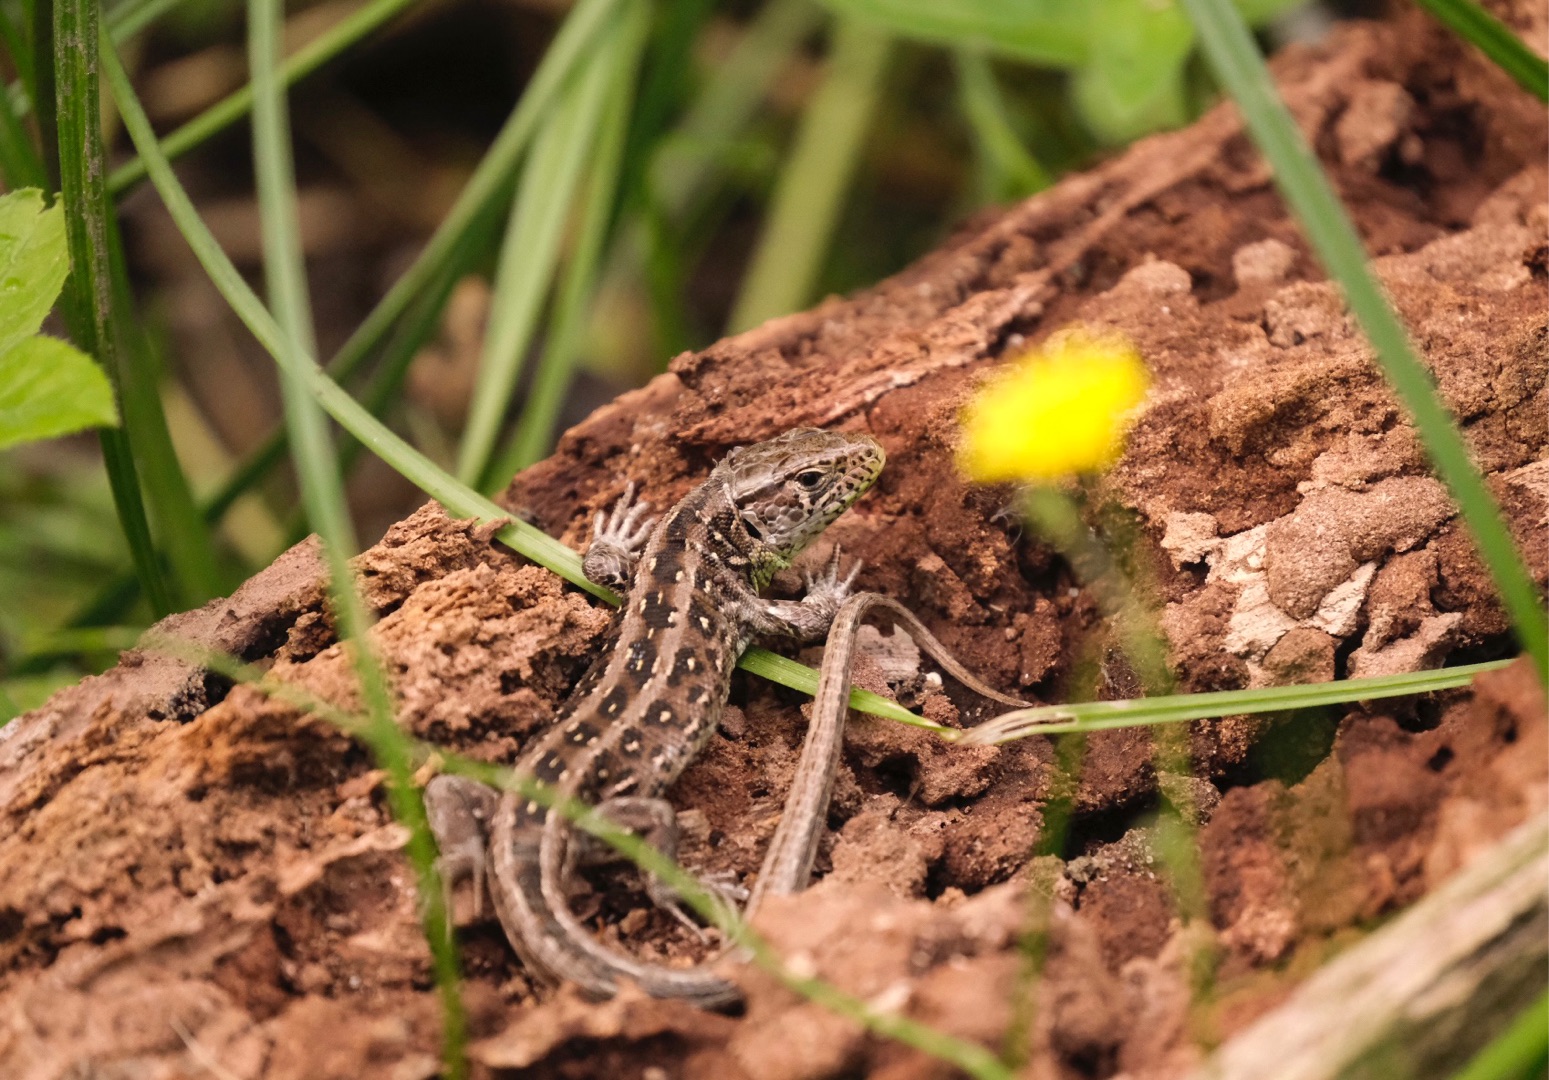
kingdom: Animalia
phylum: Chordata
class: Squamata
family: Lacertidae
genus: Lacerta
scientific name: Lacerta agilis
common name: Markfirben
